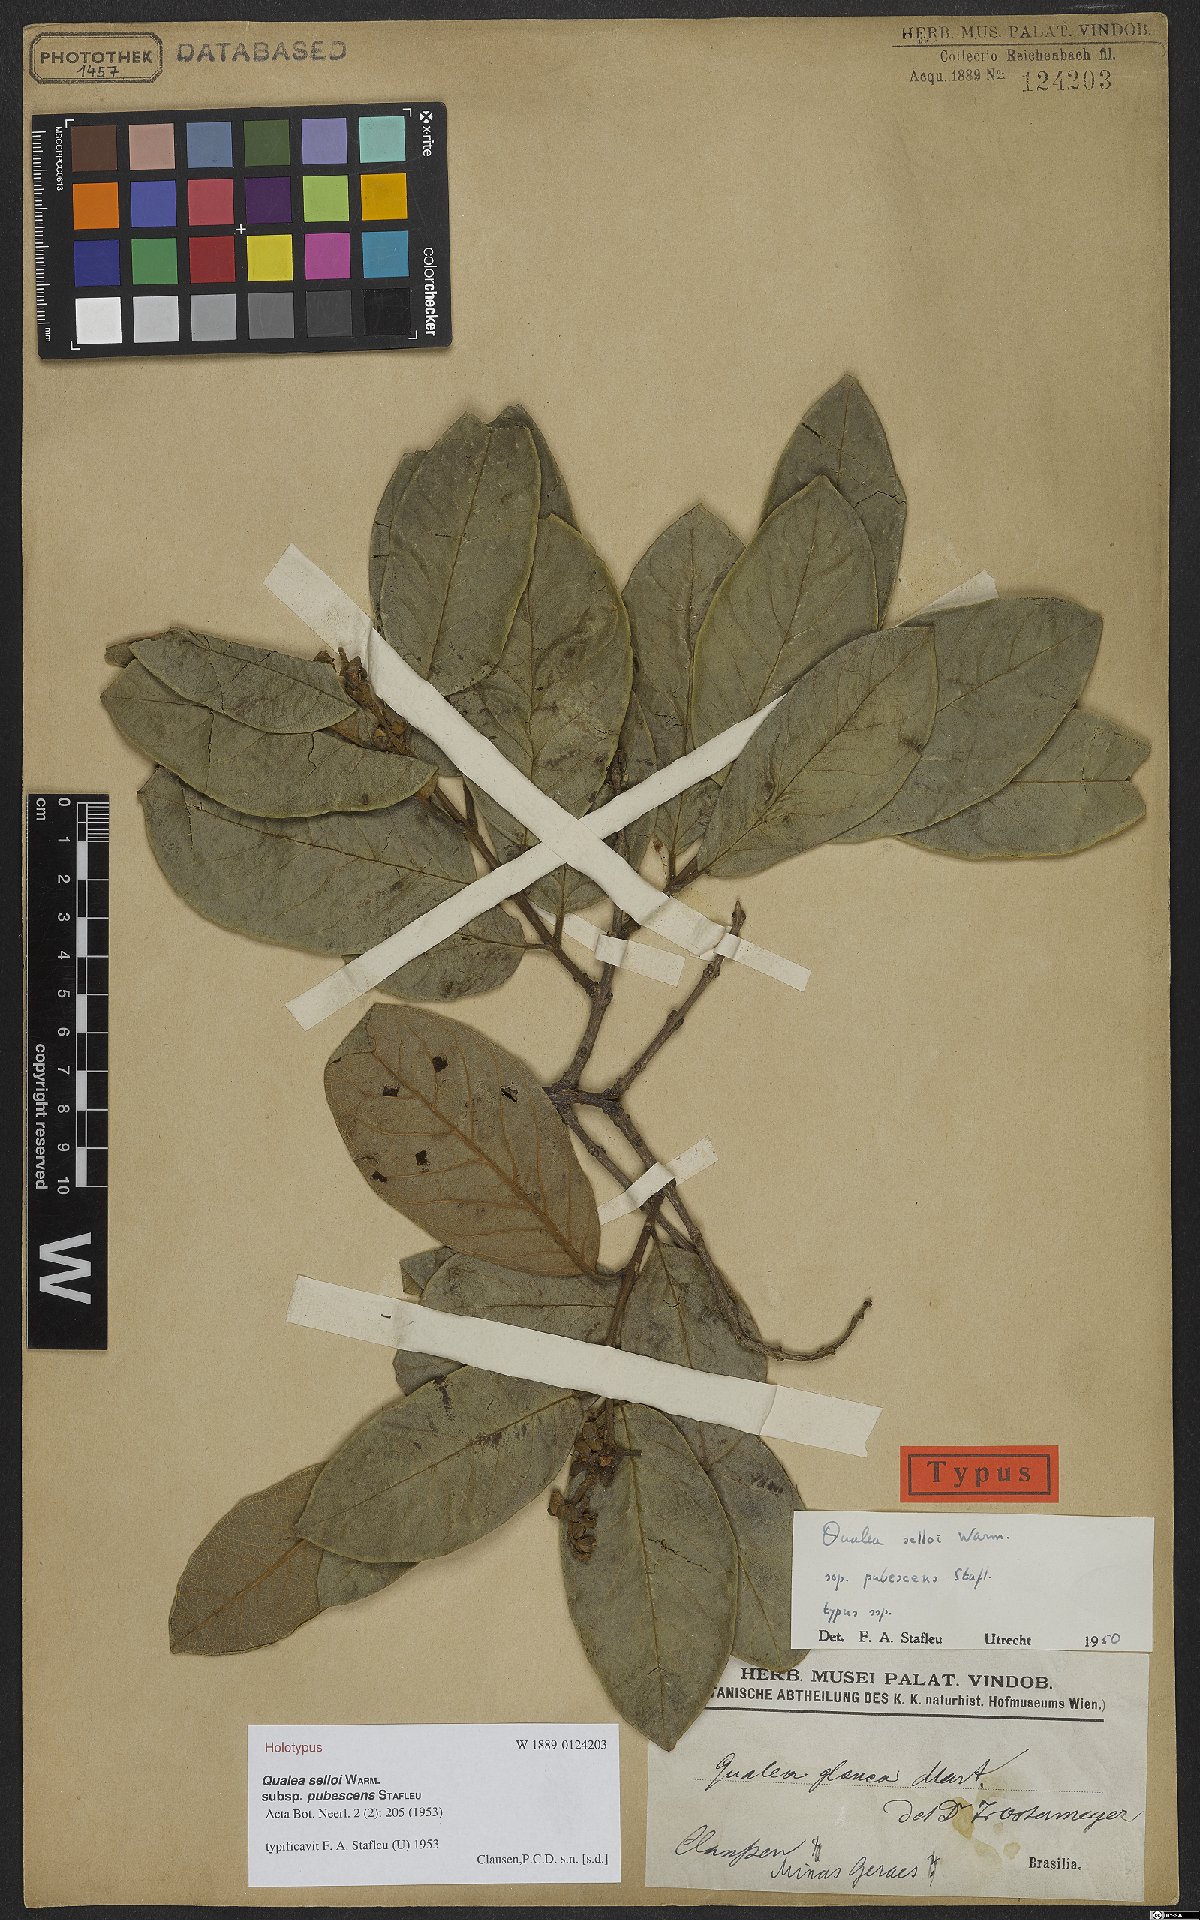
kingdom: Plantae
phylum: Tracheophyta
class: Magnoliopsida
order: Myrtales
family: Vochysiaceae
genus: Qualea
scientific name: Qualea selloi
